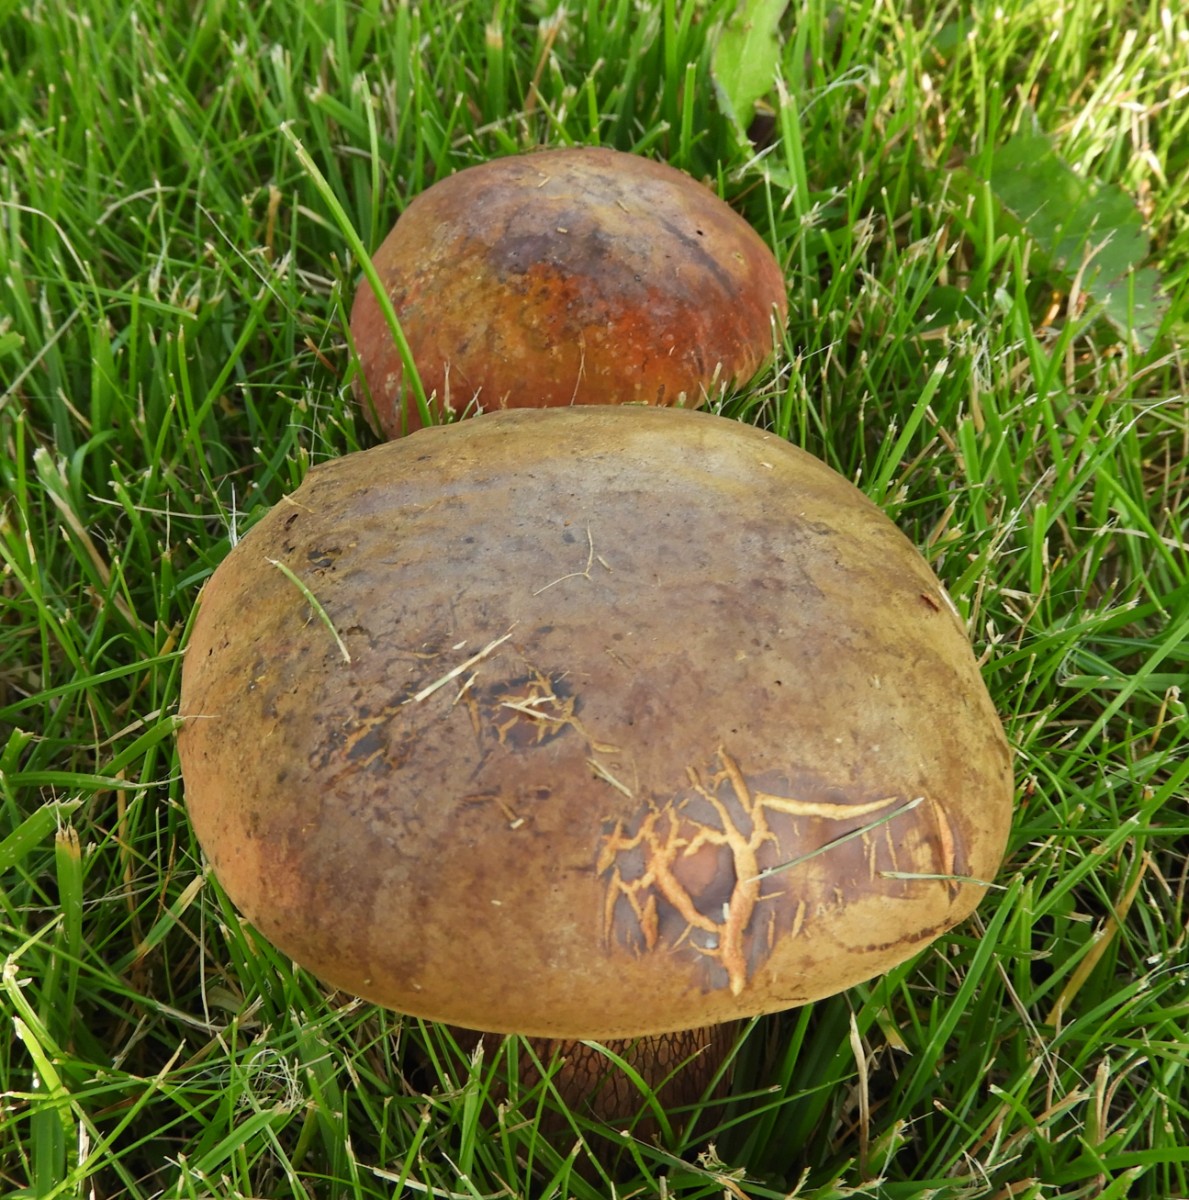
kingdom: Fungi
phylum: Basidiomycota
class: Agaricomycetes
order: Boletales
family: Boletaceae
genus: Suillellus
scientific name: Suillellus luridus
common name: netstokket indigorørhat
